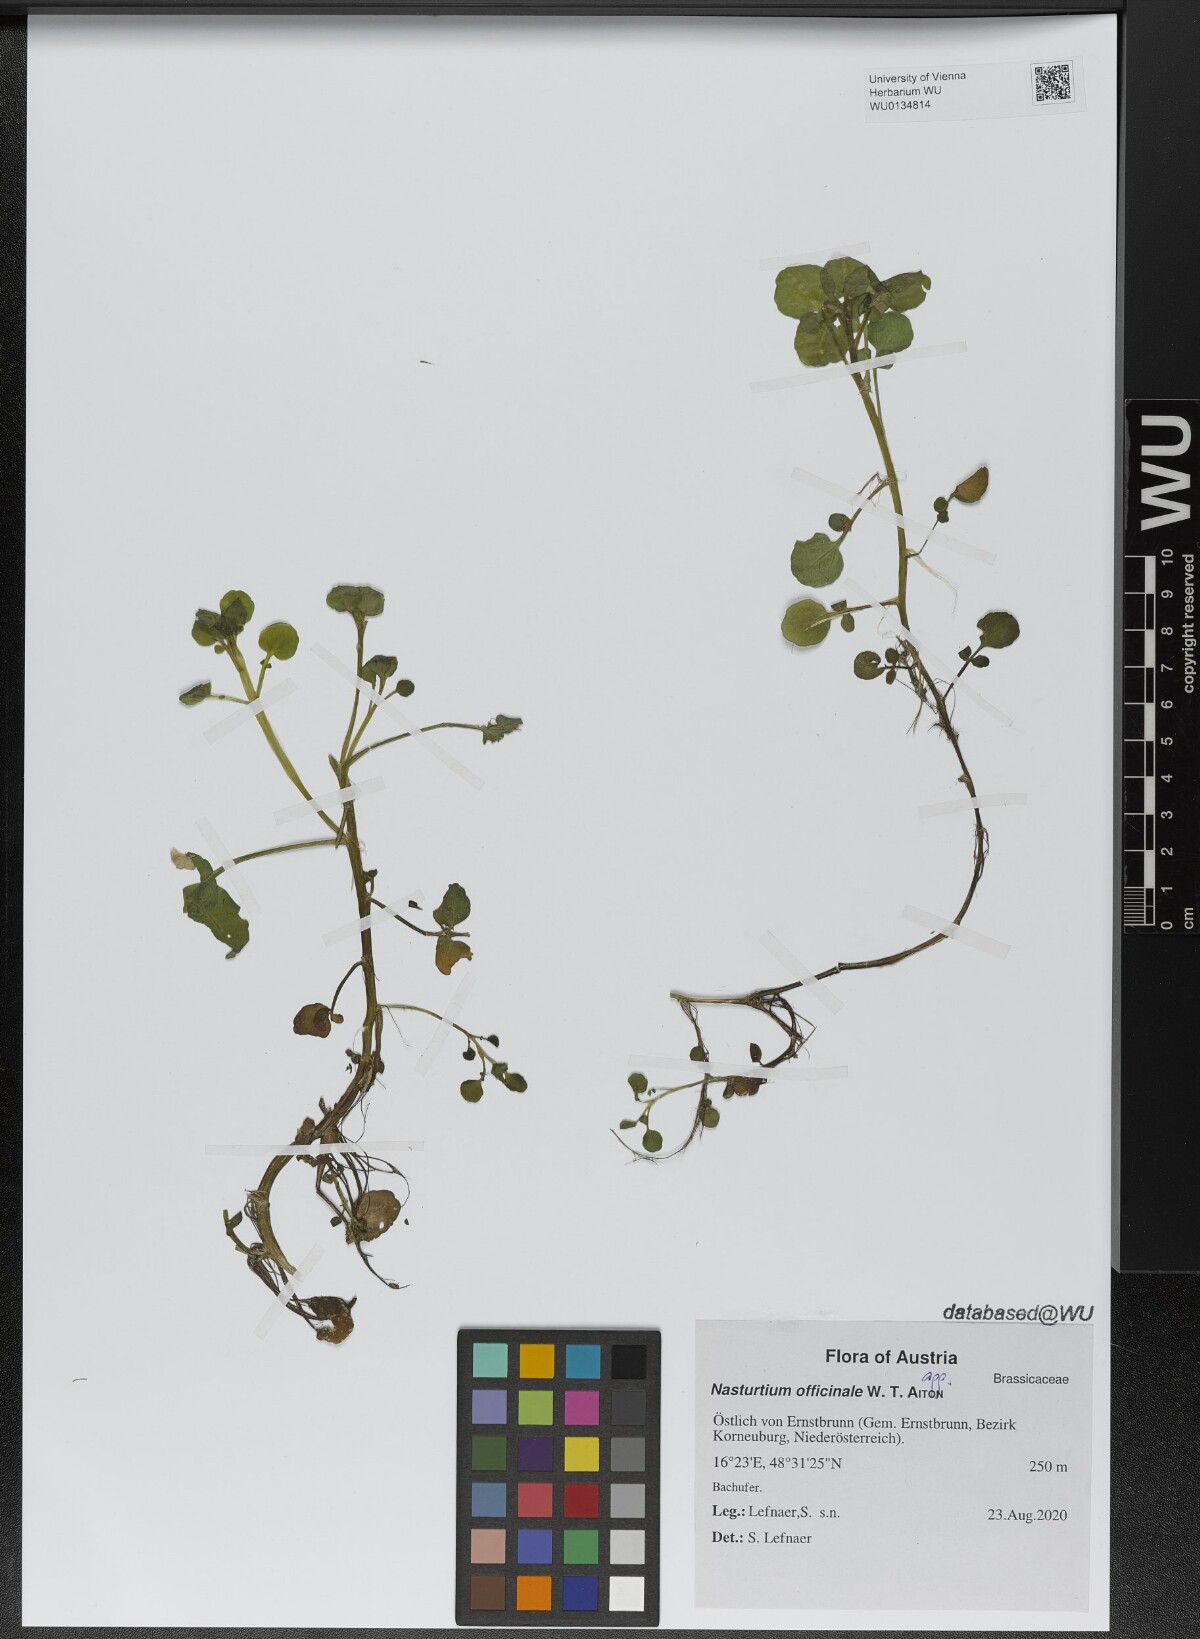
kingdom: Plantae
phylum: Tracheophyta
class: Magnoliopsida
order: Brassicales
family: Brassicaceae
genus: Nasturtium
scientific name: Nasturtium officinale
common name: Watercress
